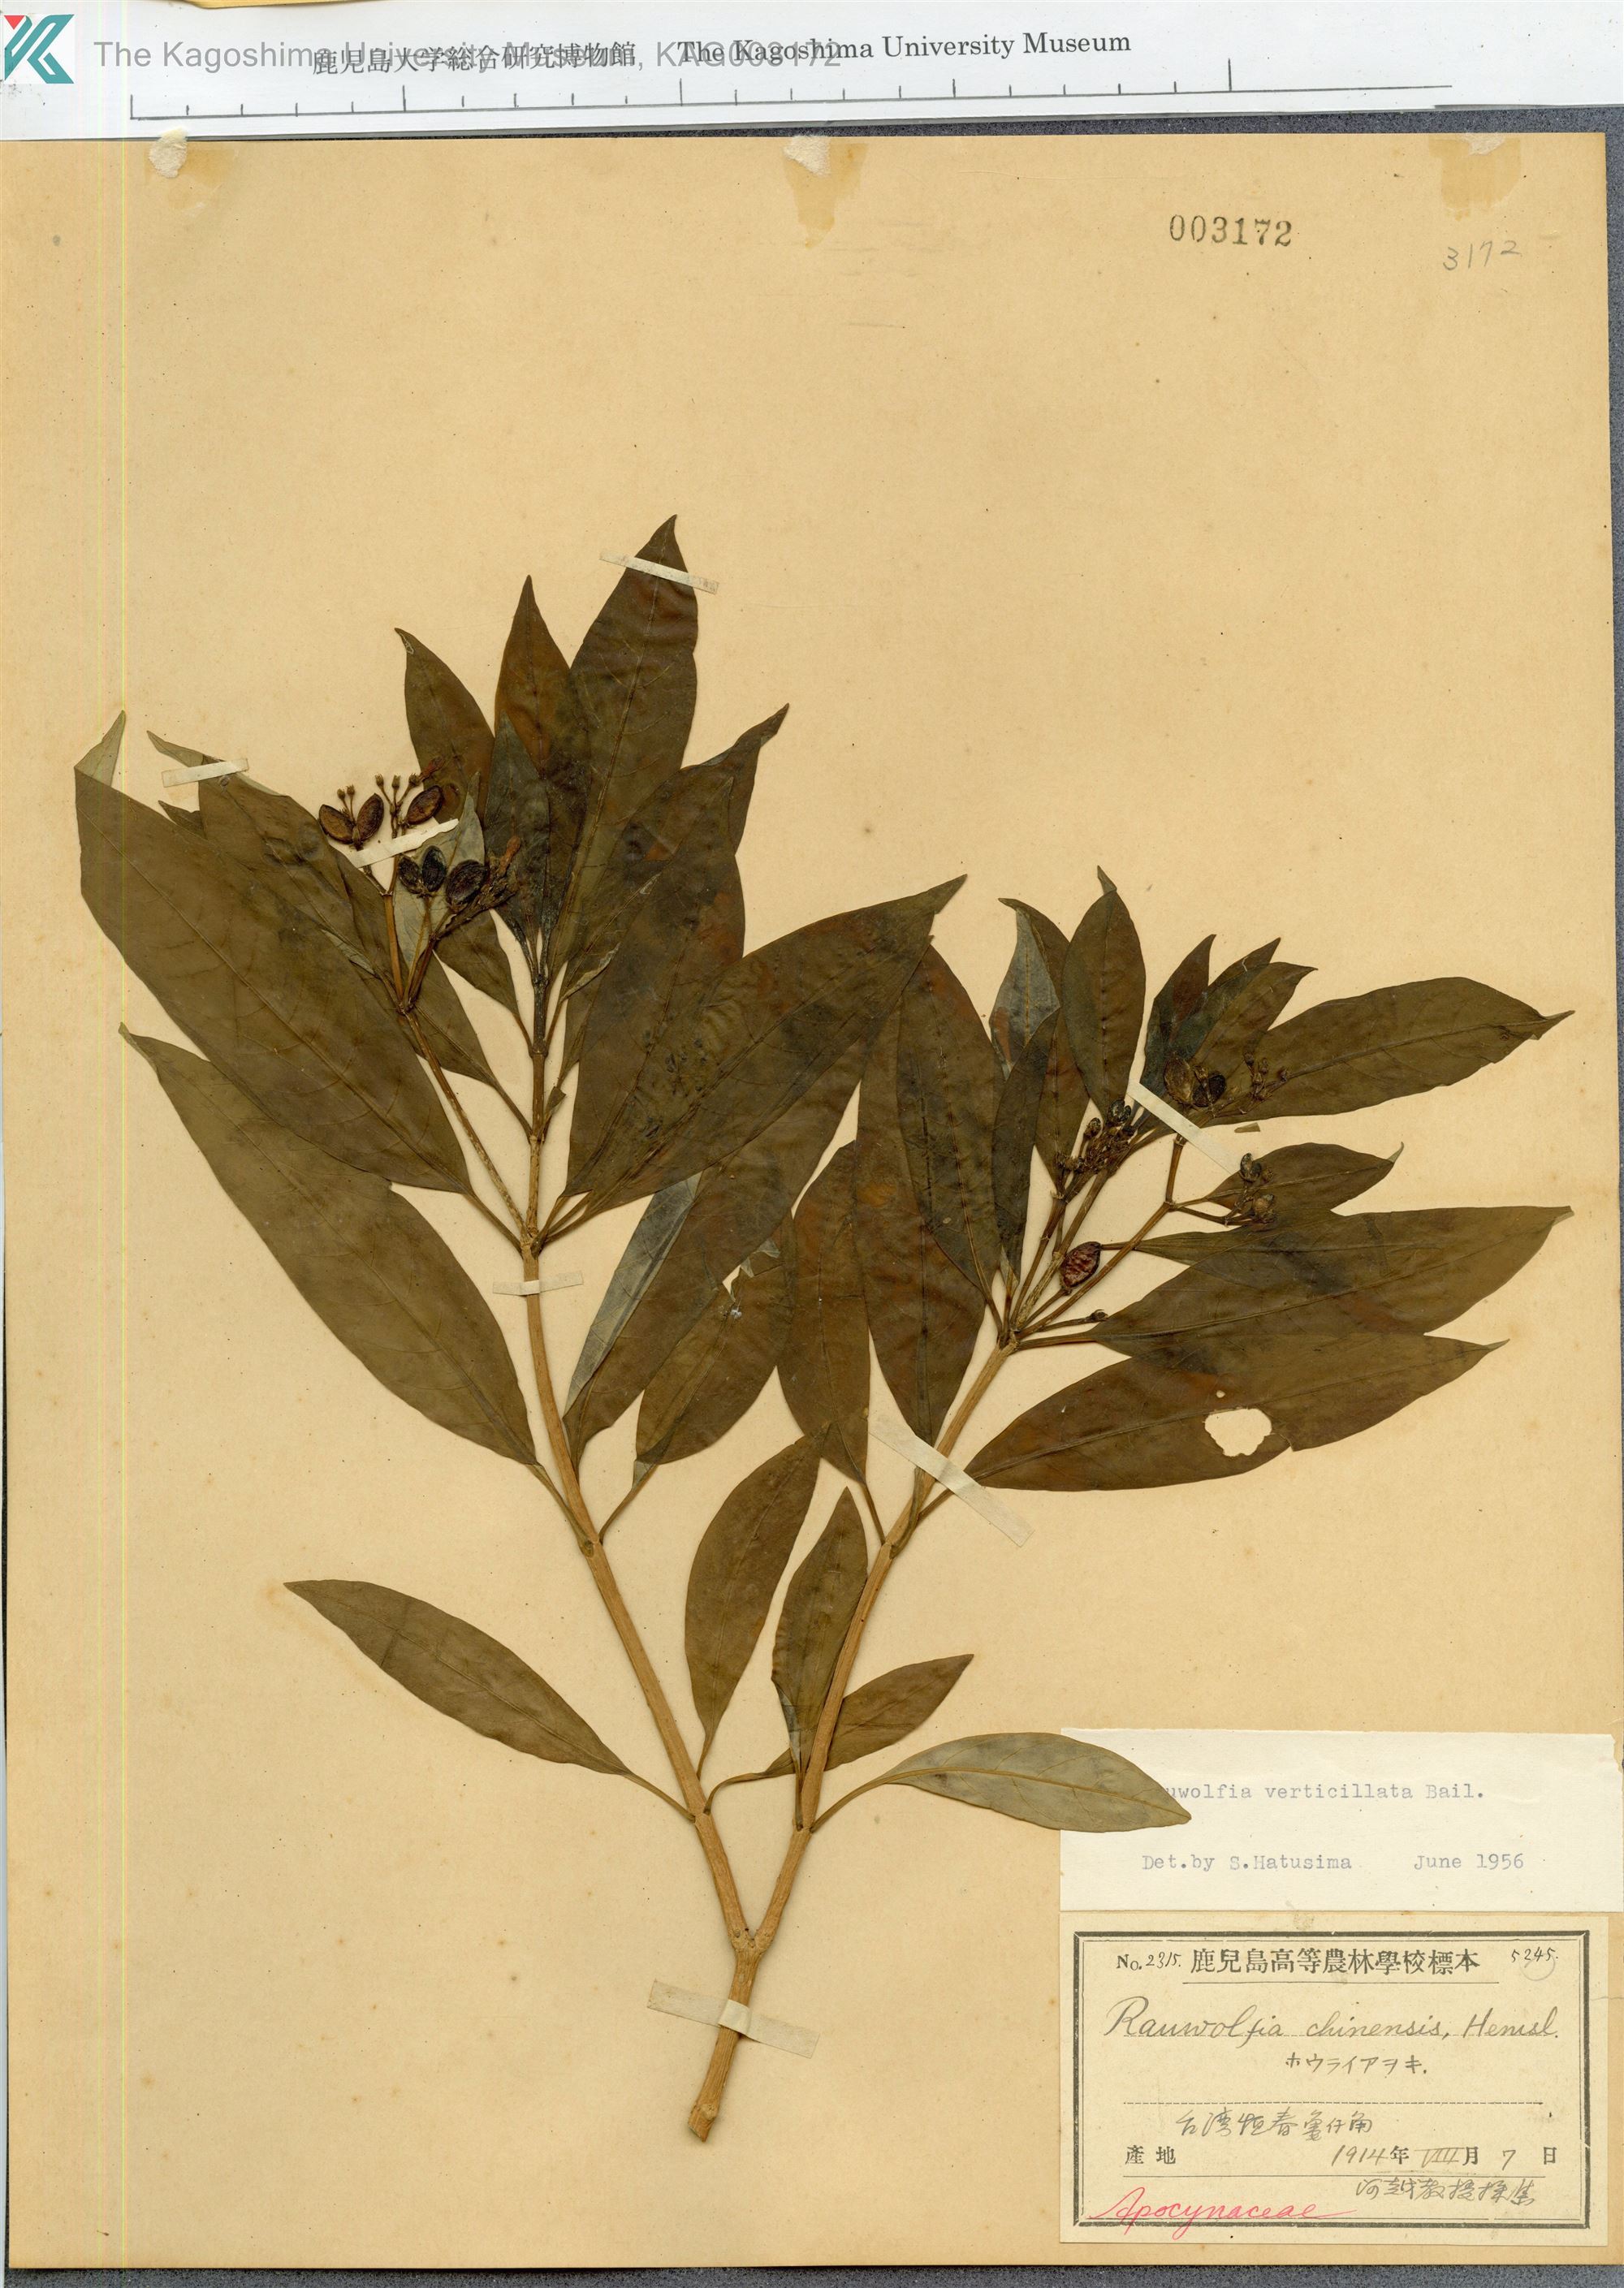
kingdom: Plantae
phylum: Tracheophyta
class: Magnoliopsida
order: Gentianales
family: Apocynaceae
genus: Rauvolfia
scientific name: Rauvolfia verticillata
